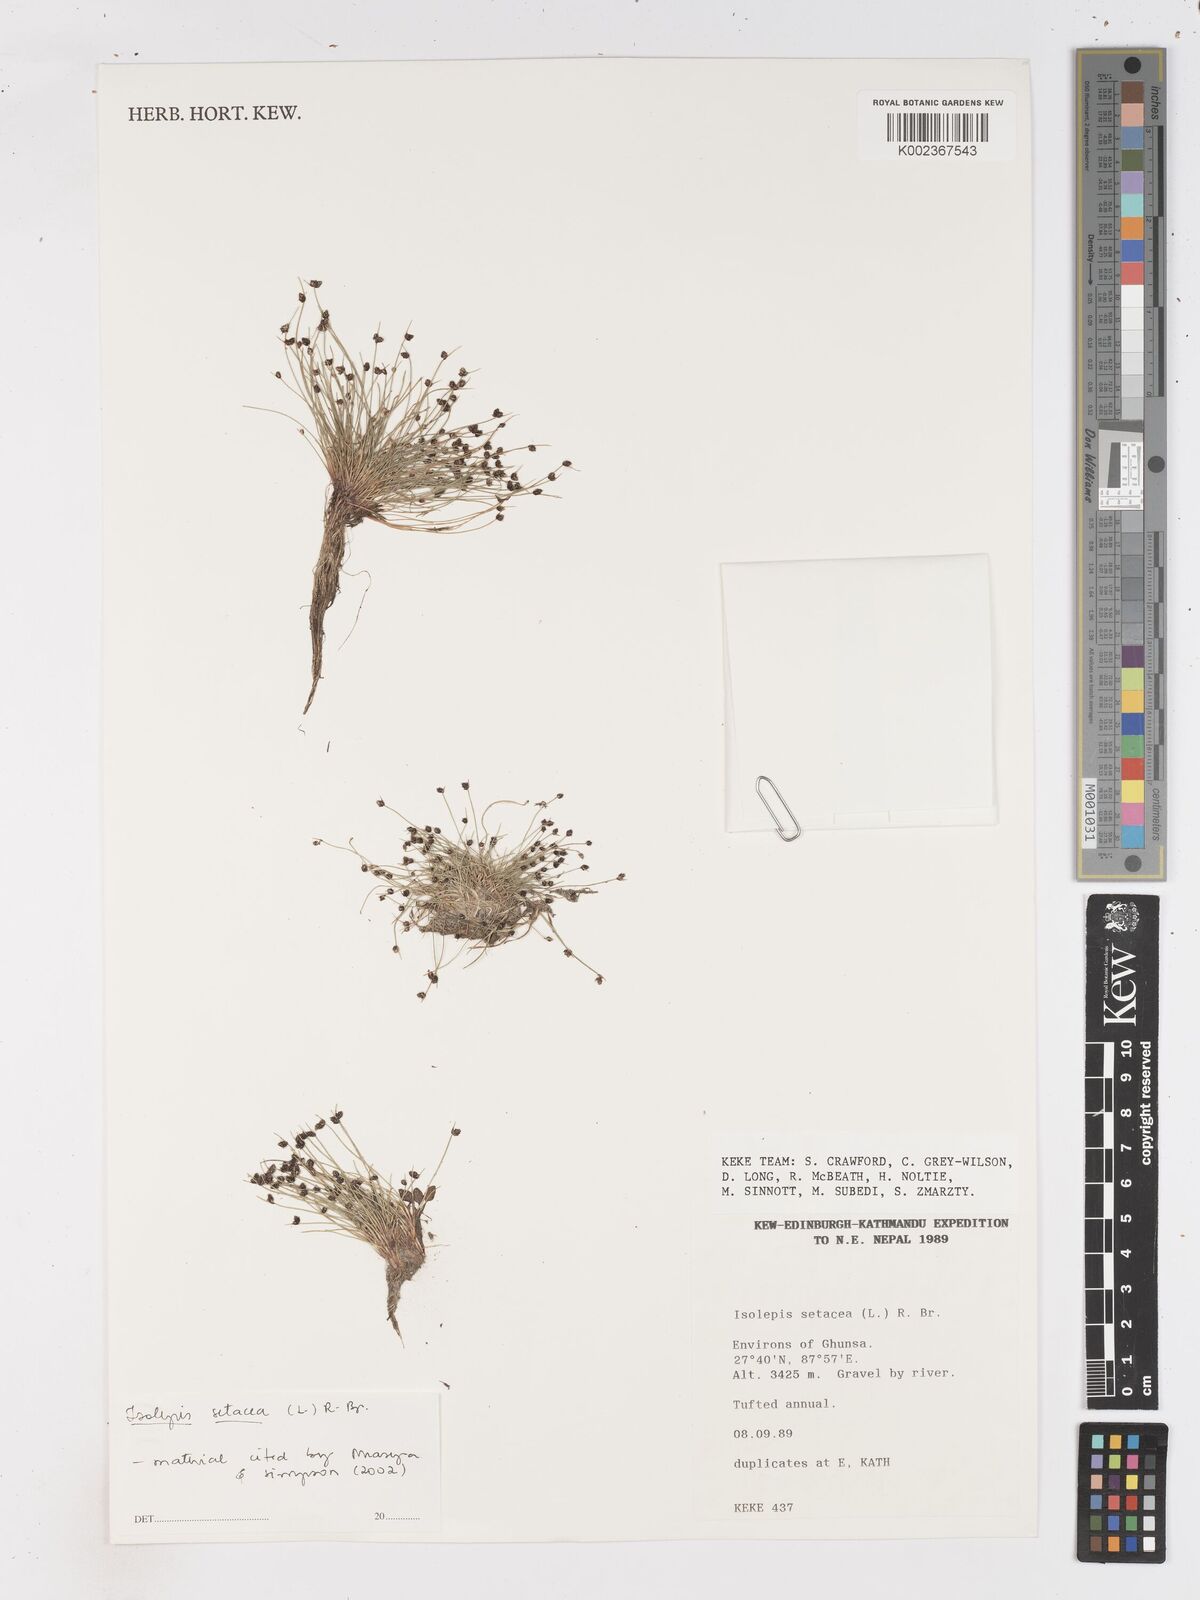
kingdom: Plantae
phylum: Tracheophyta
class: Liliopsida
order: Poales
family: Cyperaceae
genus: Isolepis
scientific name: Isolepis setacea
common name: Bristle club-rush
